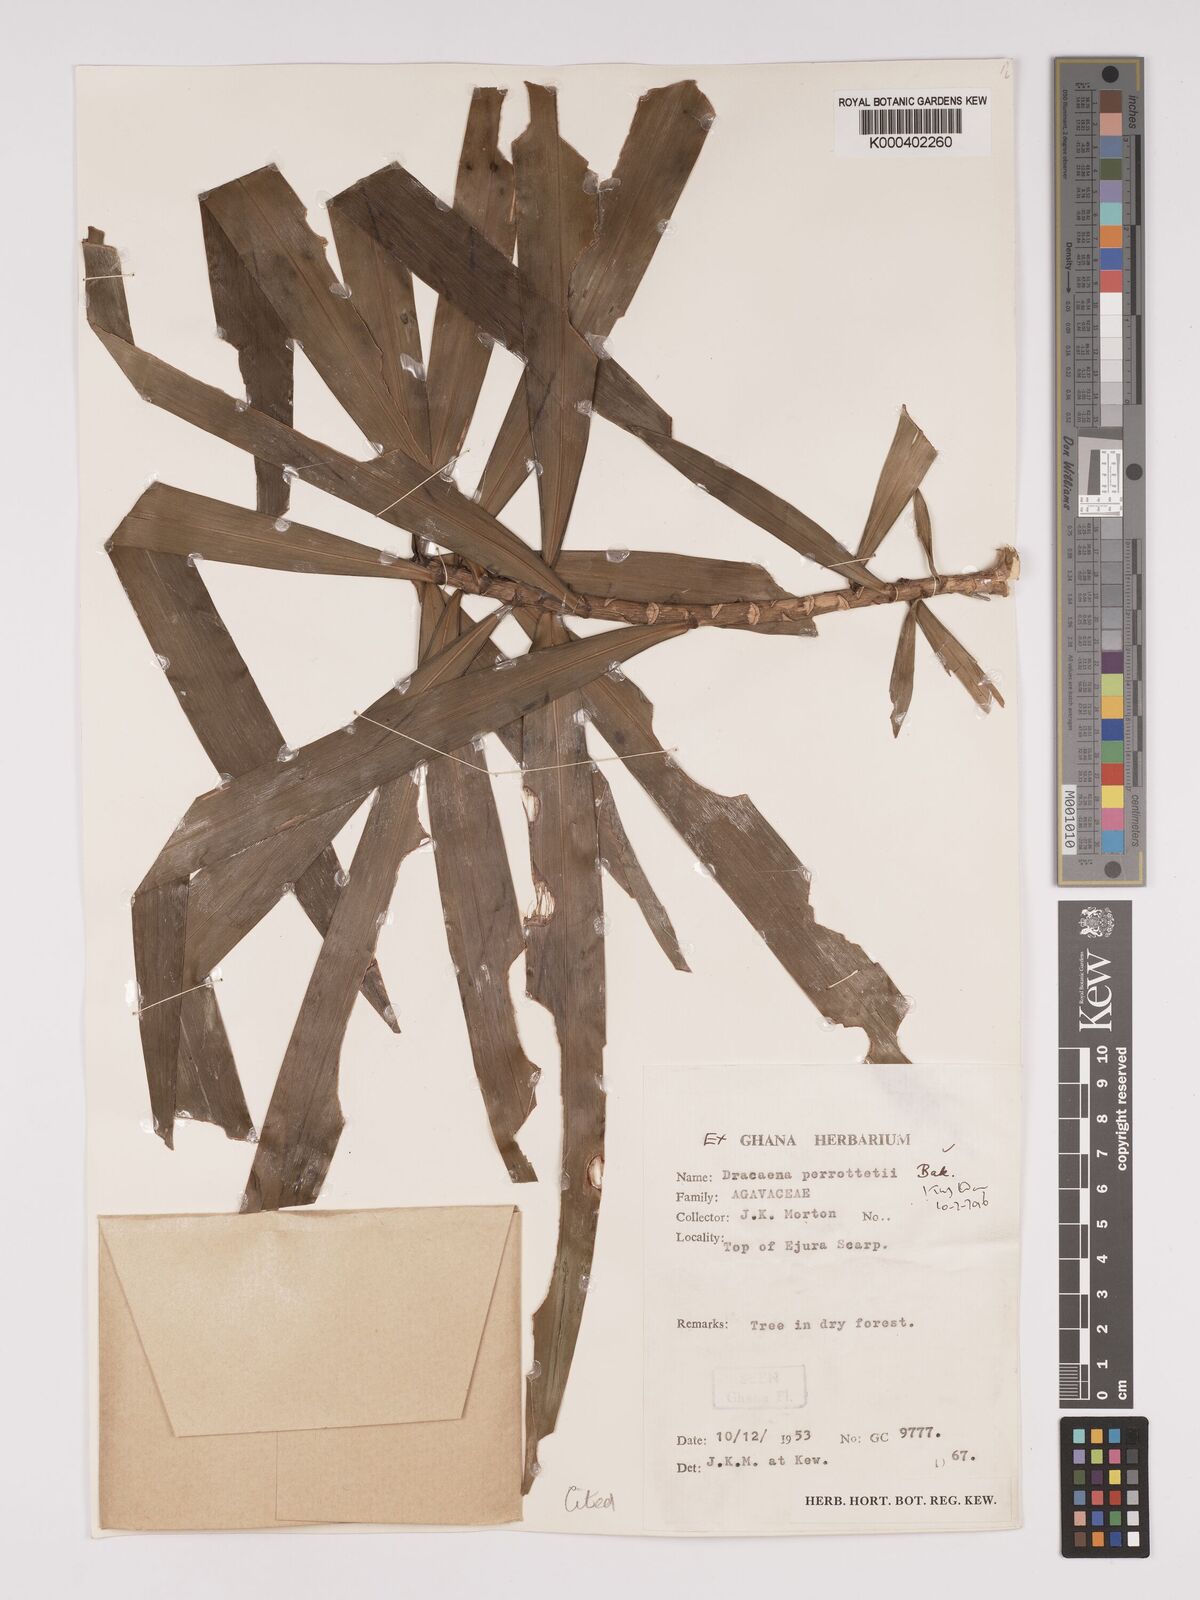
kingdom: Plantae
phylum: Tracheophyta
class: Liliopsida
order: Asparagales
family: Asparagaceae
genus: Dracaena
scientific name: Dracaena mannii
